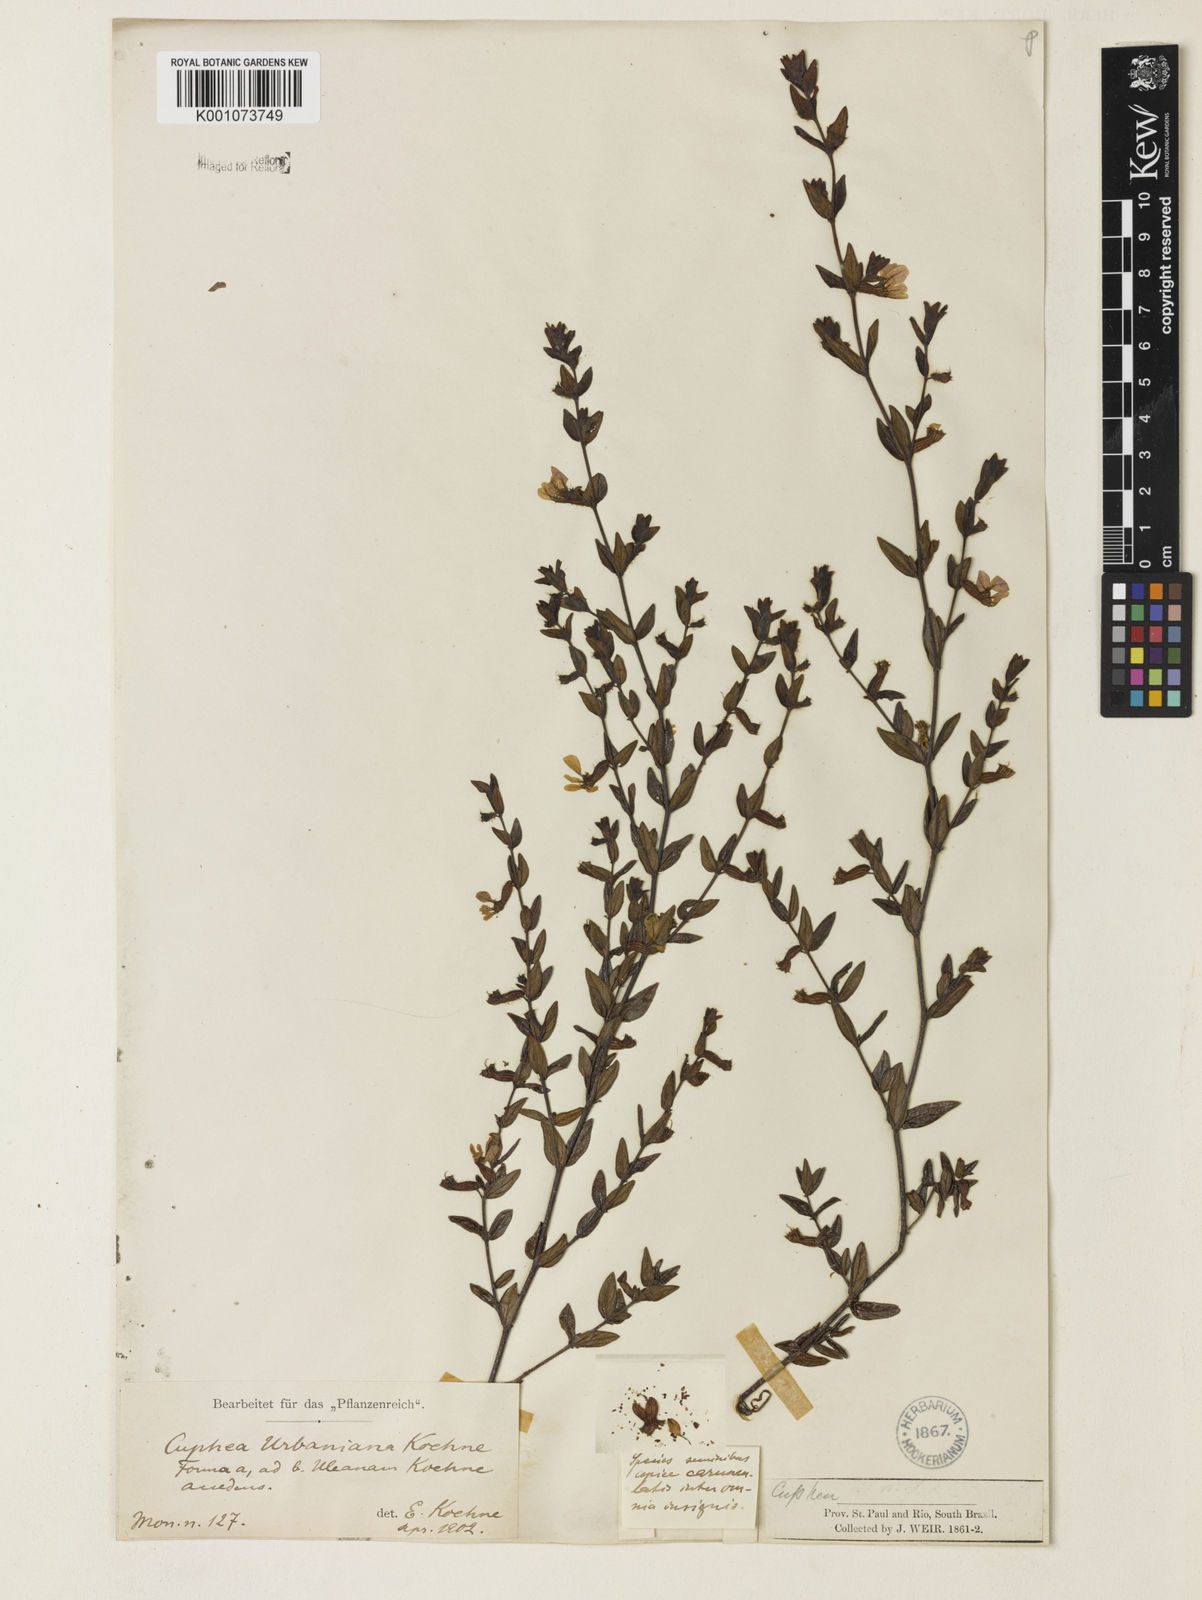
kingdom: Plantae
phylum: Tracheophyta
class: Magnoliopsida
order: Myrtales
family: Lythraceae
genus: Cuphea
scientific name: Cuphea urbaniana
